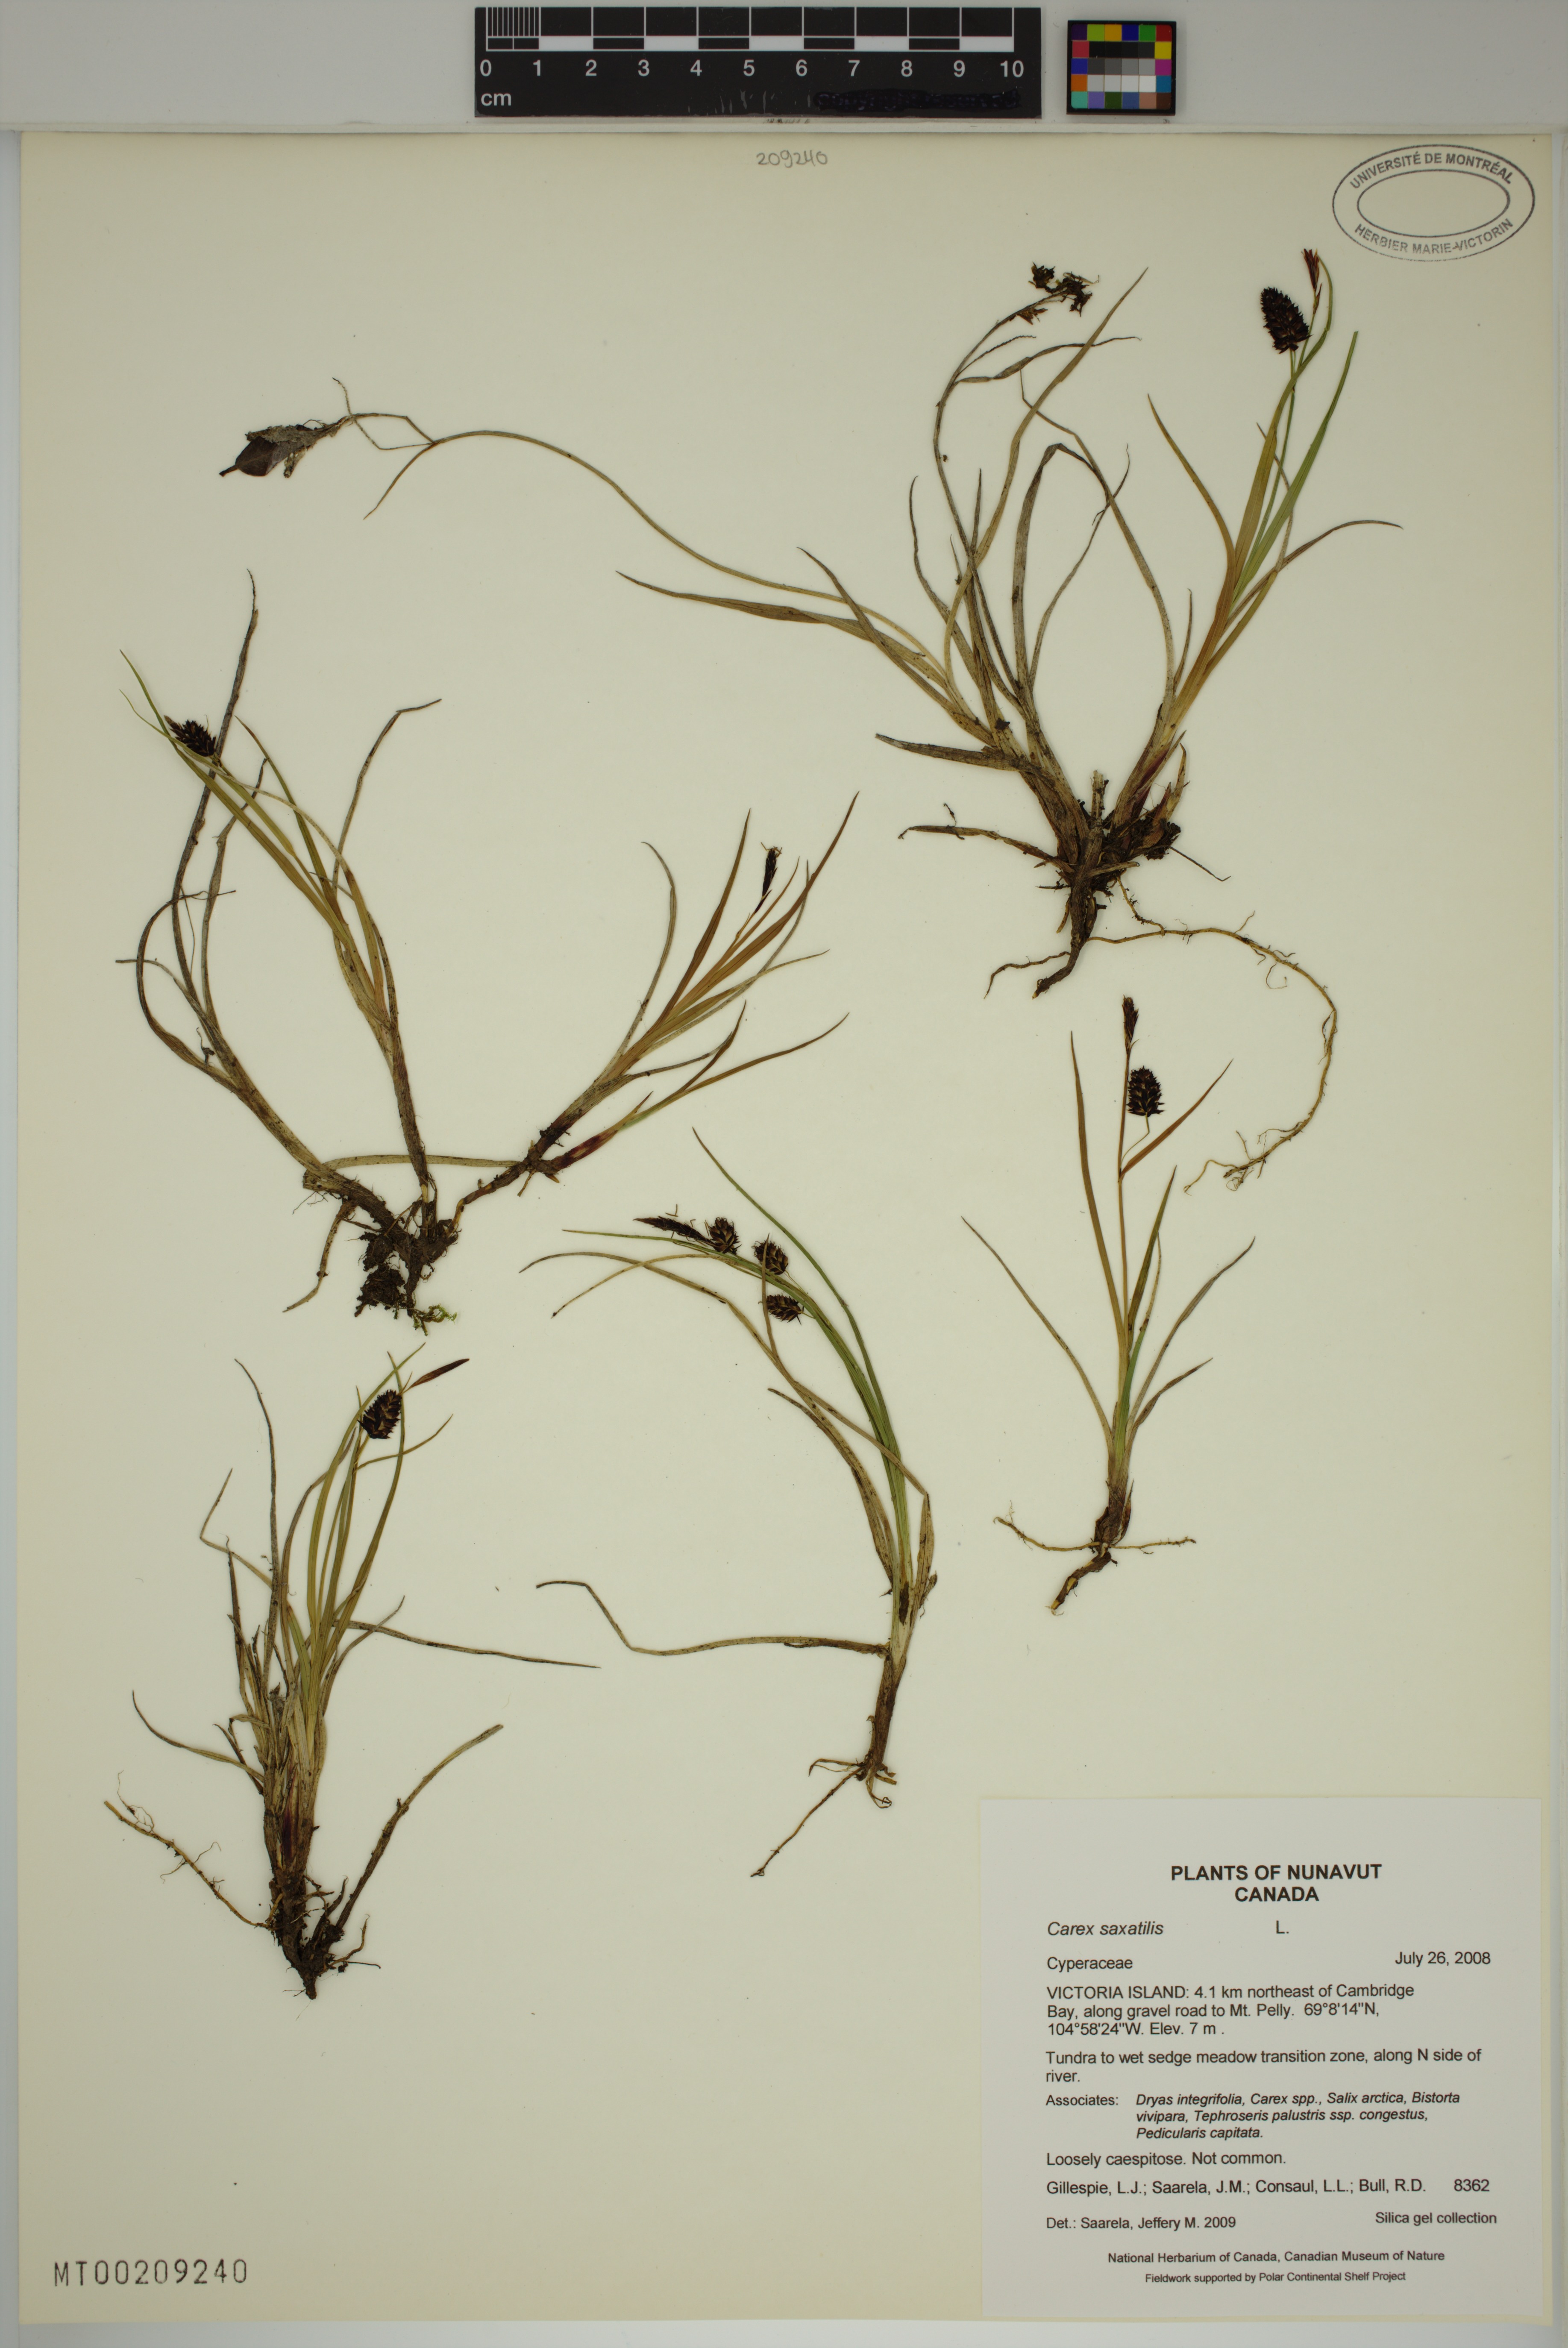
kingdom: Plantae
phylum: Tracheophyta
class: Liliopsida
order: Poales
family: Cyperaceae
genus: Carex
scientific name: Carex saxatilis
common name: Russet sedge
